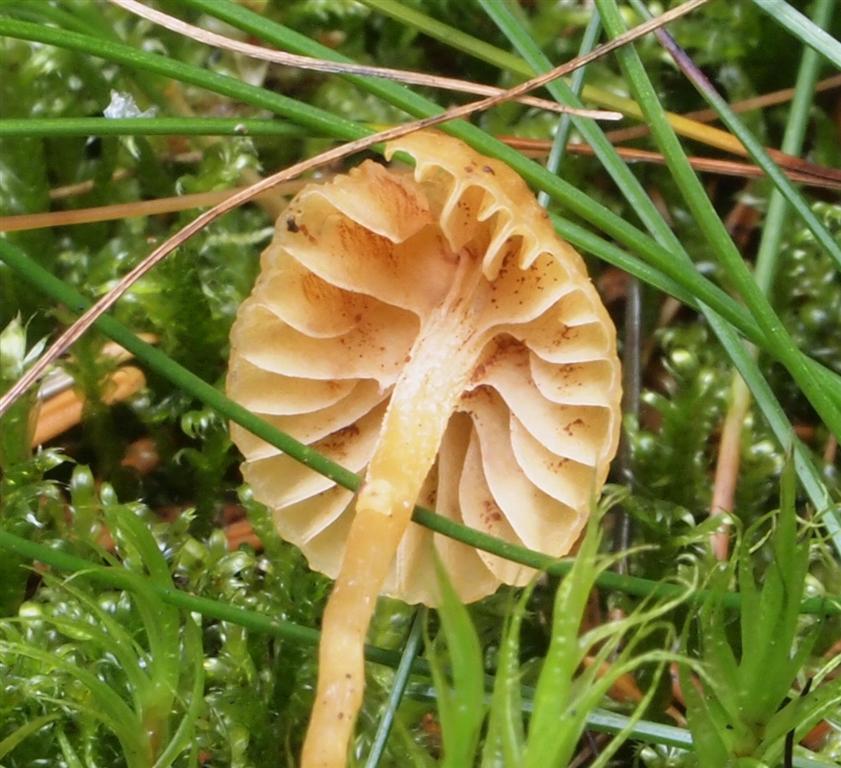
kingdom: Fungi
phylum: Basidiomycota
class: Agaricomycetes
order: Agaricales
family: Hymenogastraceae
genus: Galerina
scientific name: Galerina calyptrata
